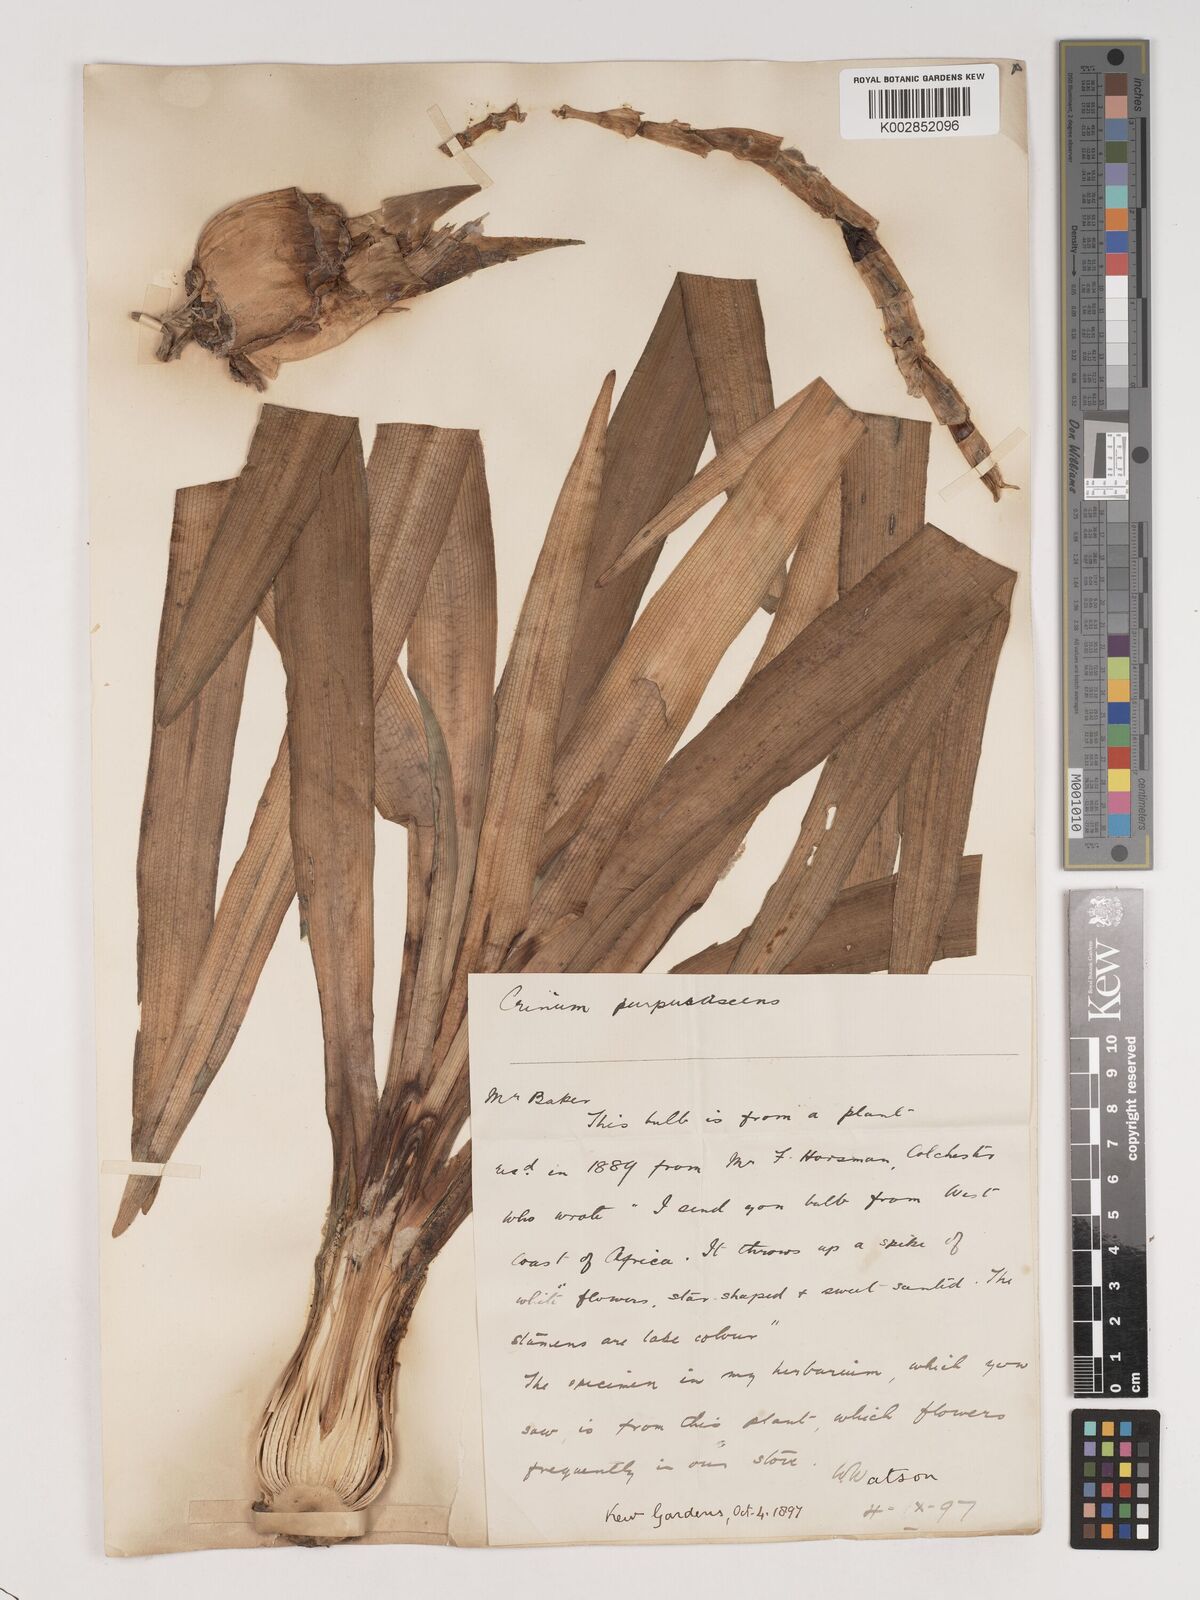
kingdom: Plantae
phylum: Tracheophyta
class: Liliopsida
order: Asparagales
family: Amaryllidaceae
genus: Crinum
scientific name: Crinum purpurascens
